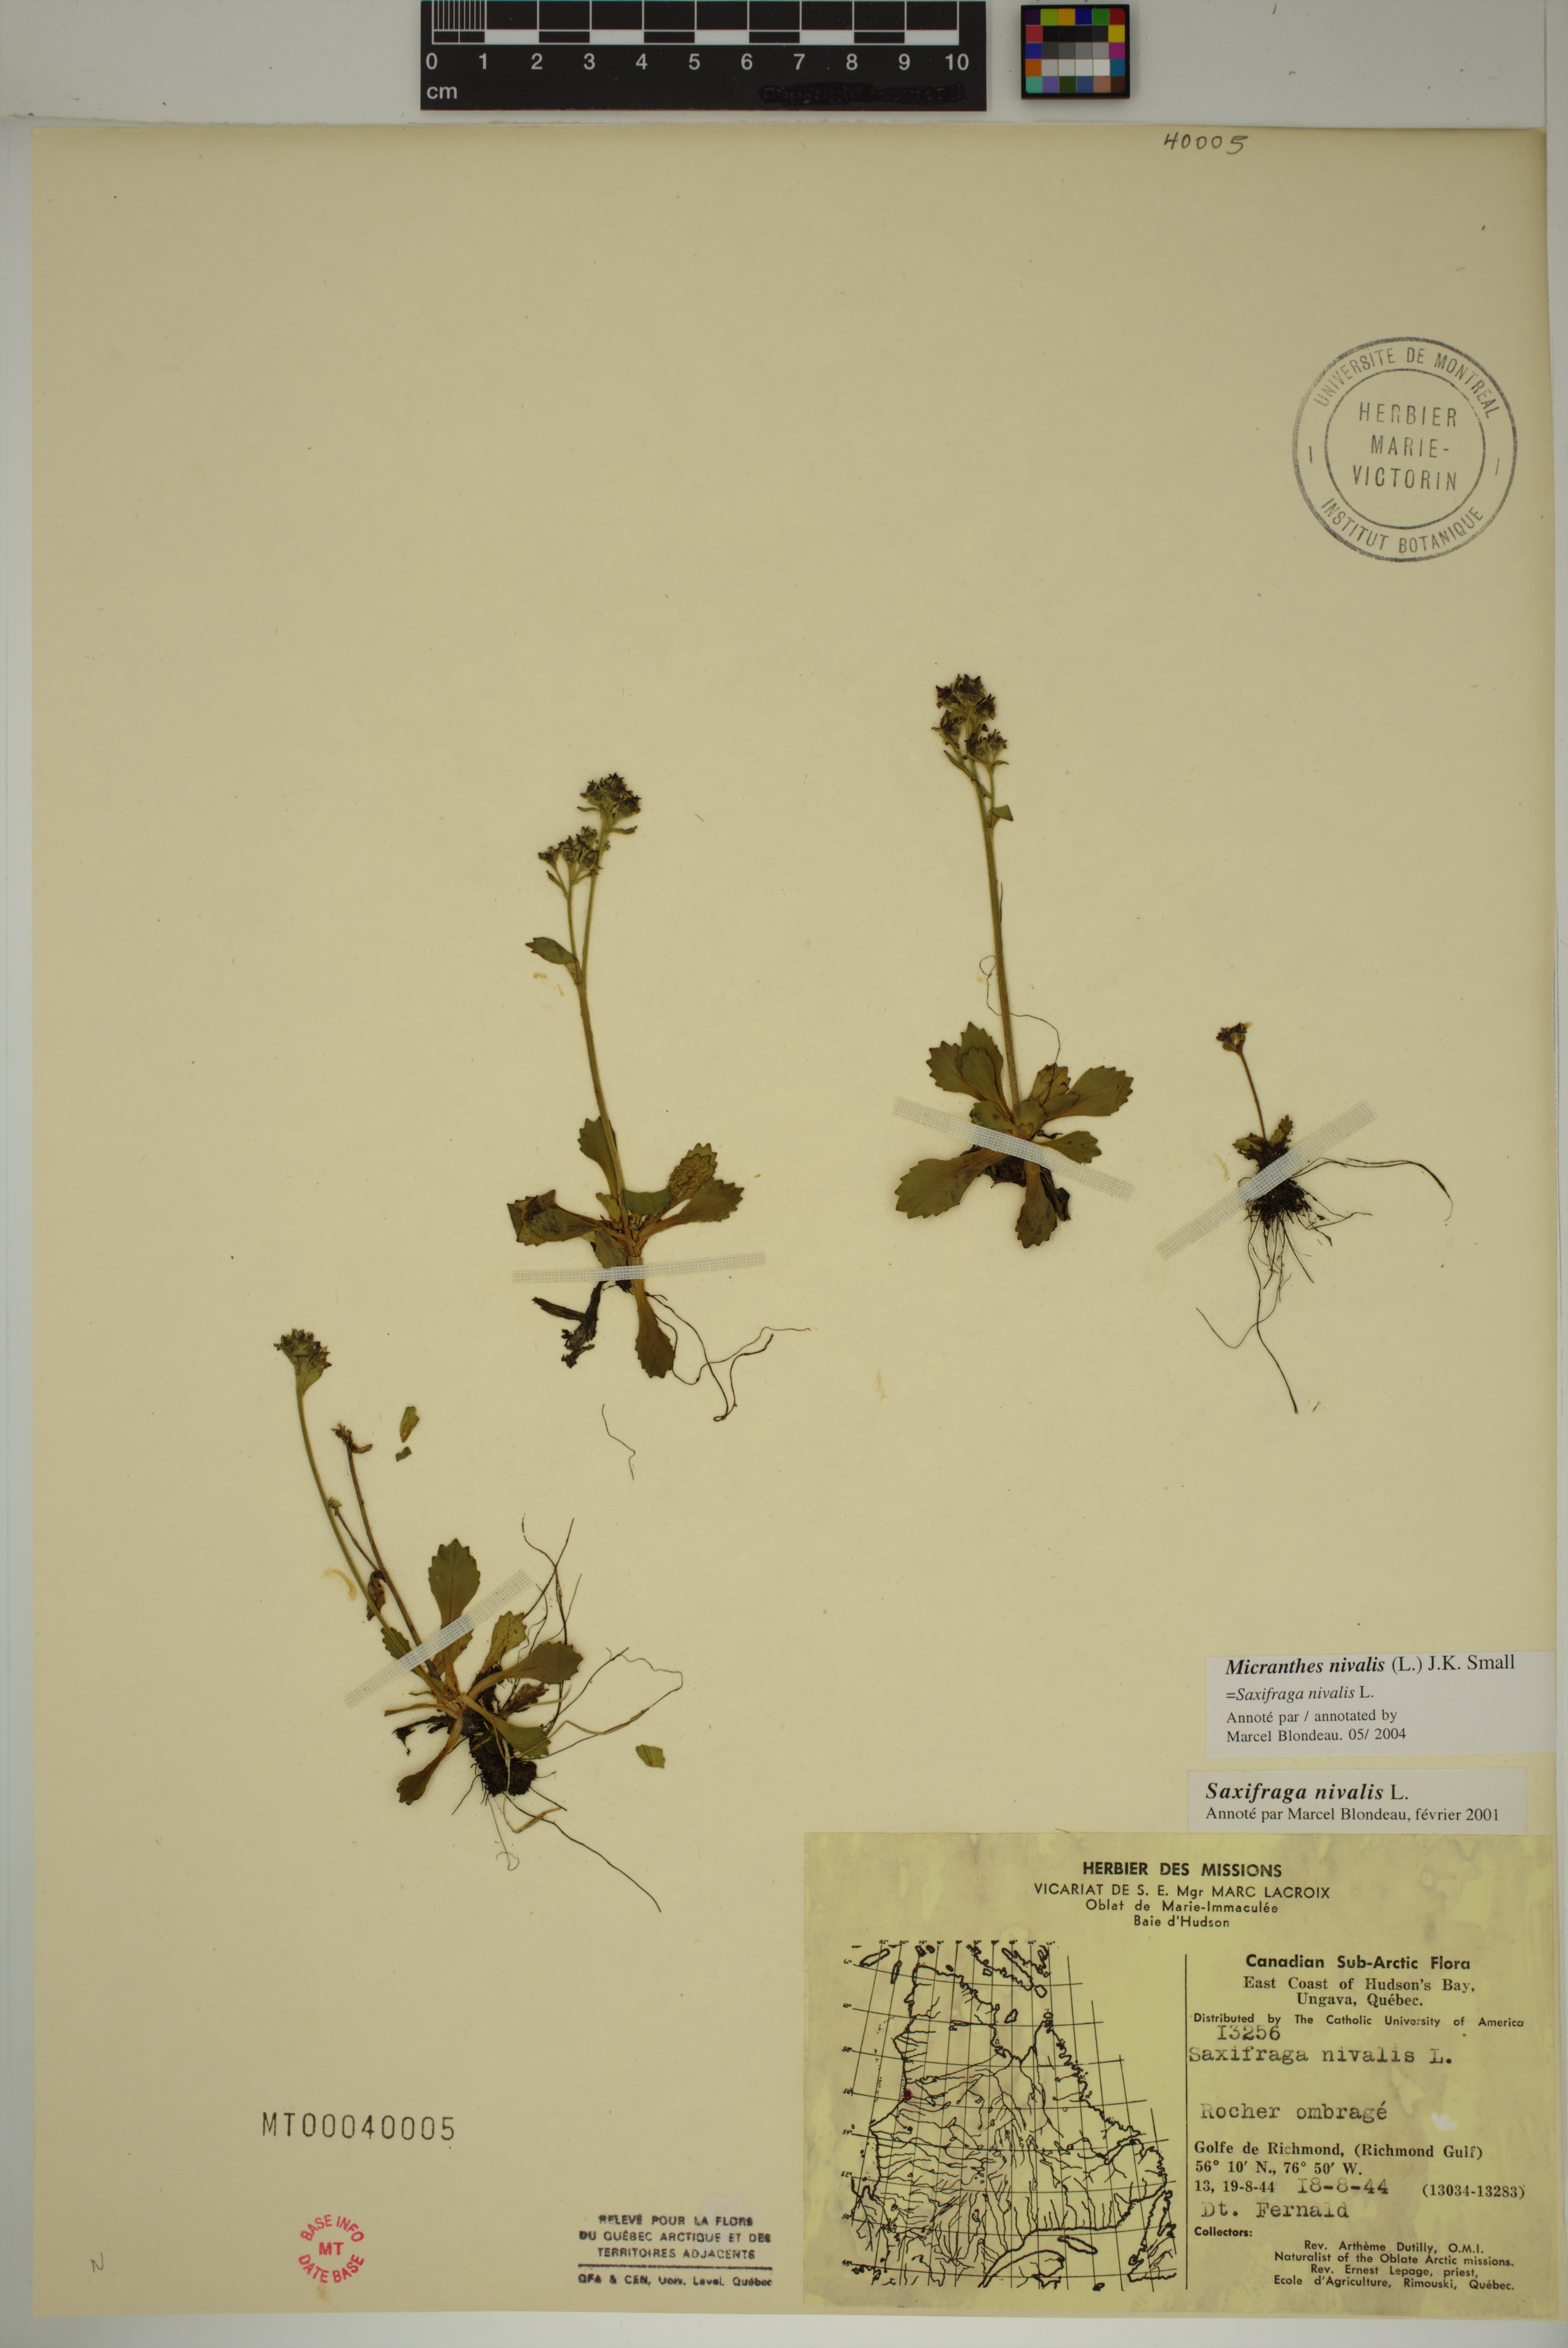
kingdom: Plantae
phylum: Tracheophyta
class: Magnoliopsida
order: Saxifragales
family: Saxifragaceae
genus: Micranthes
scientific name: Micranthes nivalis
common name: Alpine saxifrage
